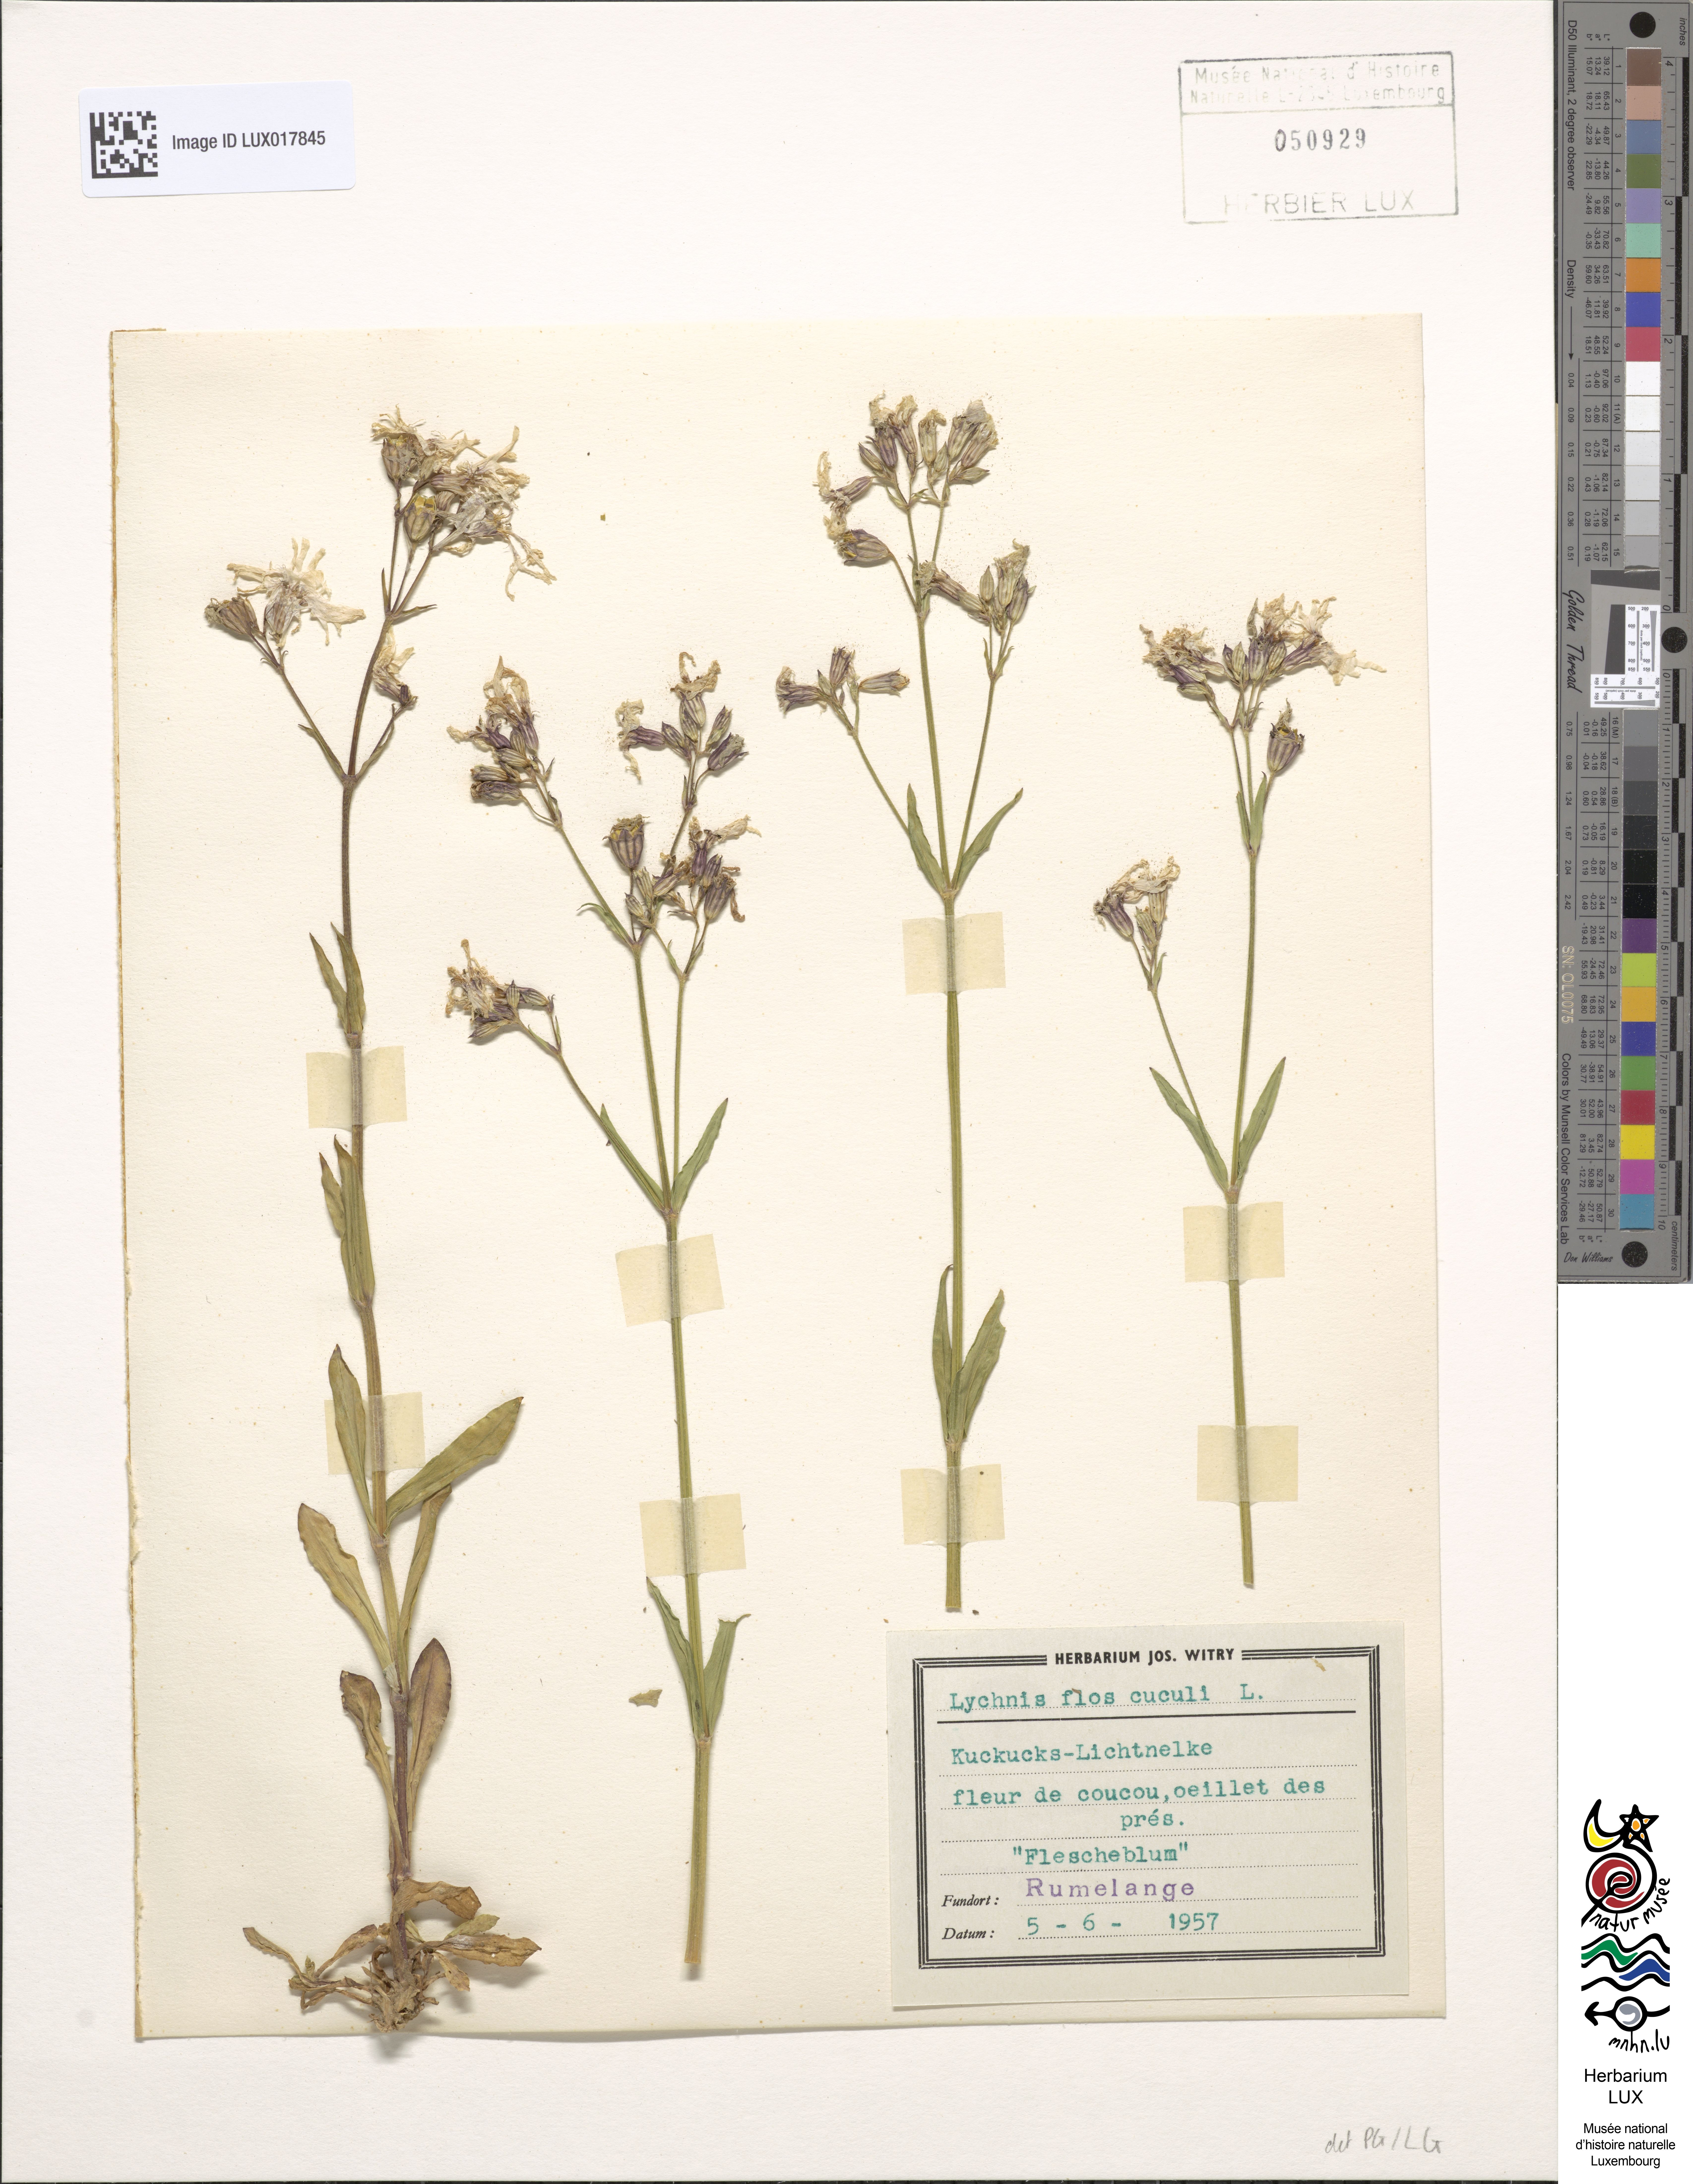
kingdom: Plantae
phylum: Tracheophyta
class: Magnoliopsida
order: Caryophyllales
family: Caryophyllaceae
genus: Silene
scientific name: Silene flos-cuculi
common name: Ragged-robin
